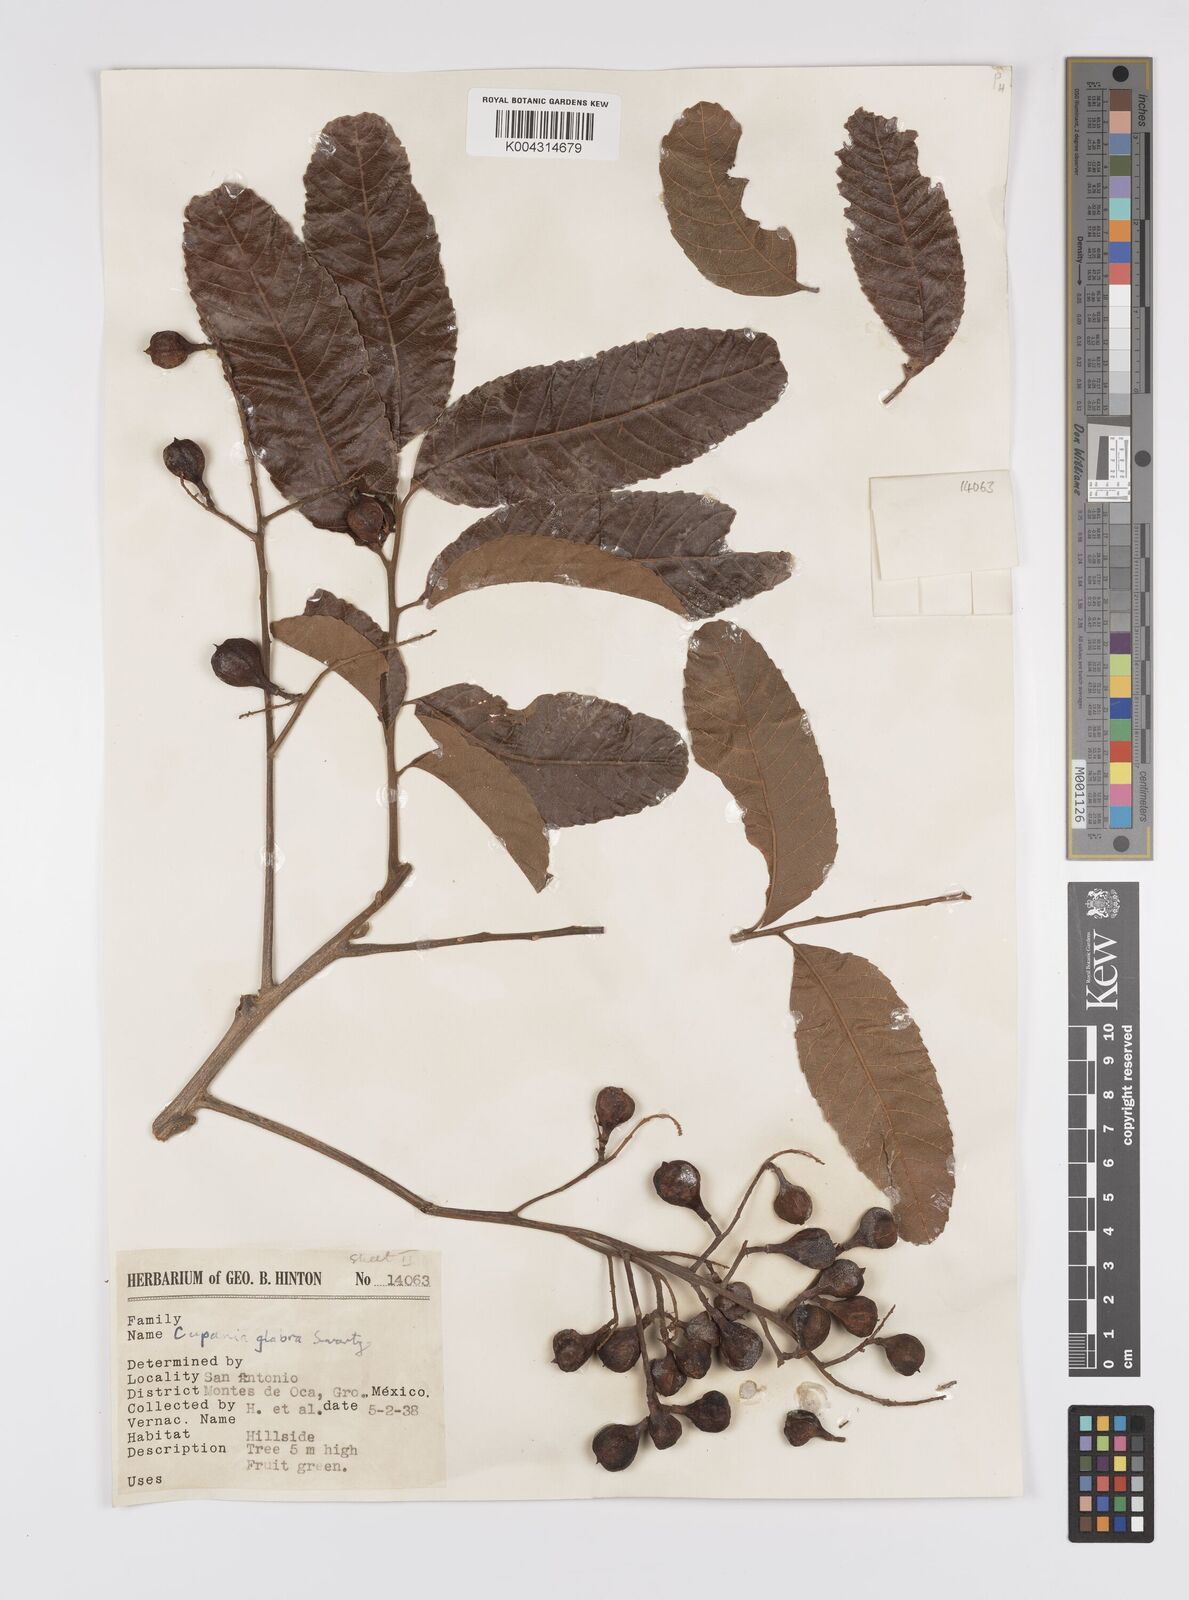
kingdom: Plantae
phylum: Tracheophyta
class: Magnoliopsida
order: Sapindales
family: Sapindaceae
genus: Cupania
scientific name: Cupania
